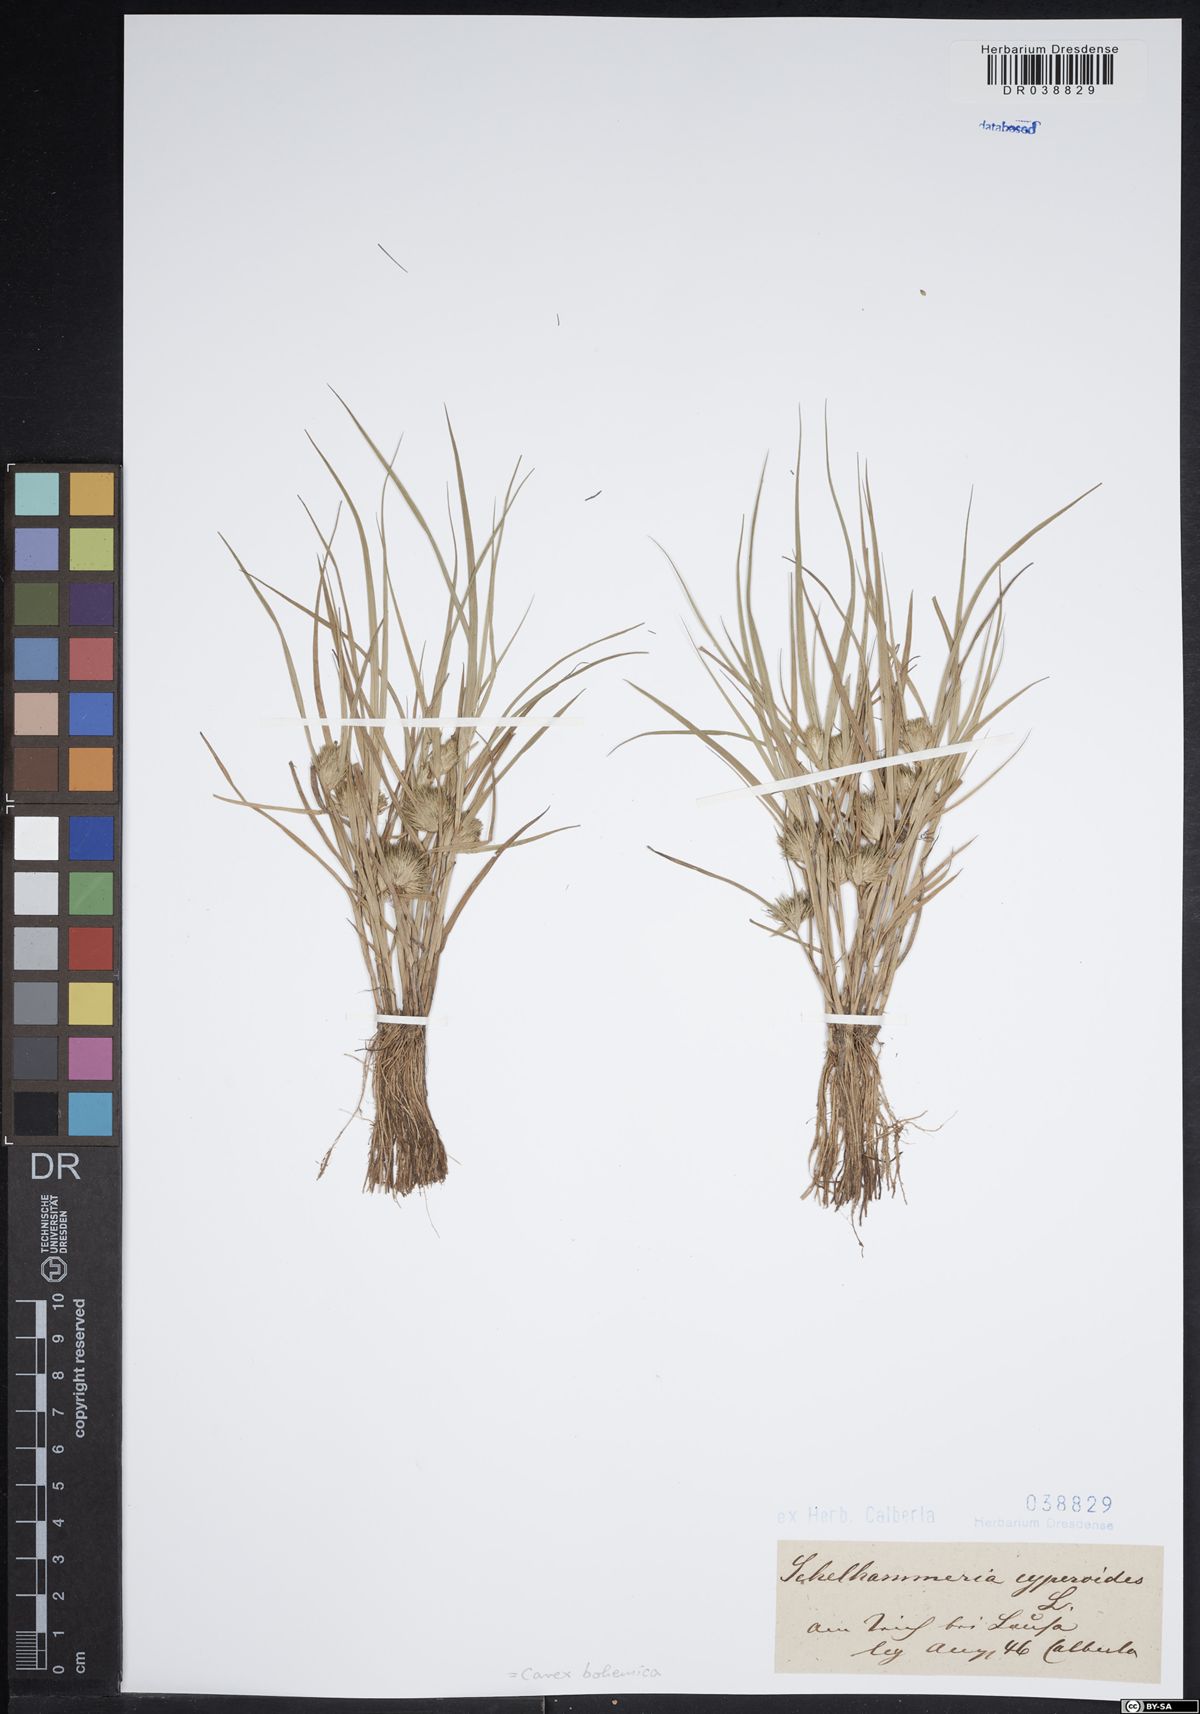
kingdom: Plantae
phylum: Tracheophyta
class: Liliopsida
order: Poales
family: Cyperaceae
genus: Carex
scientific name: Carex bohemica
